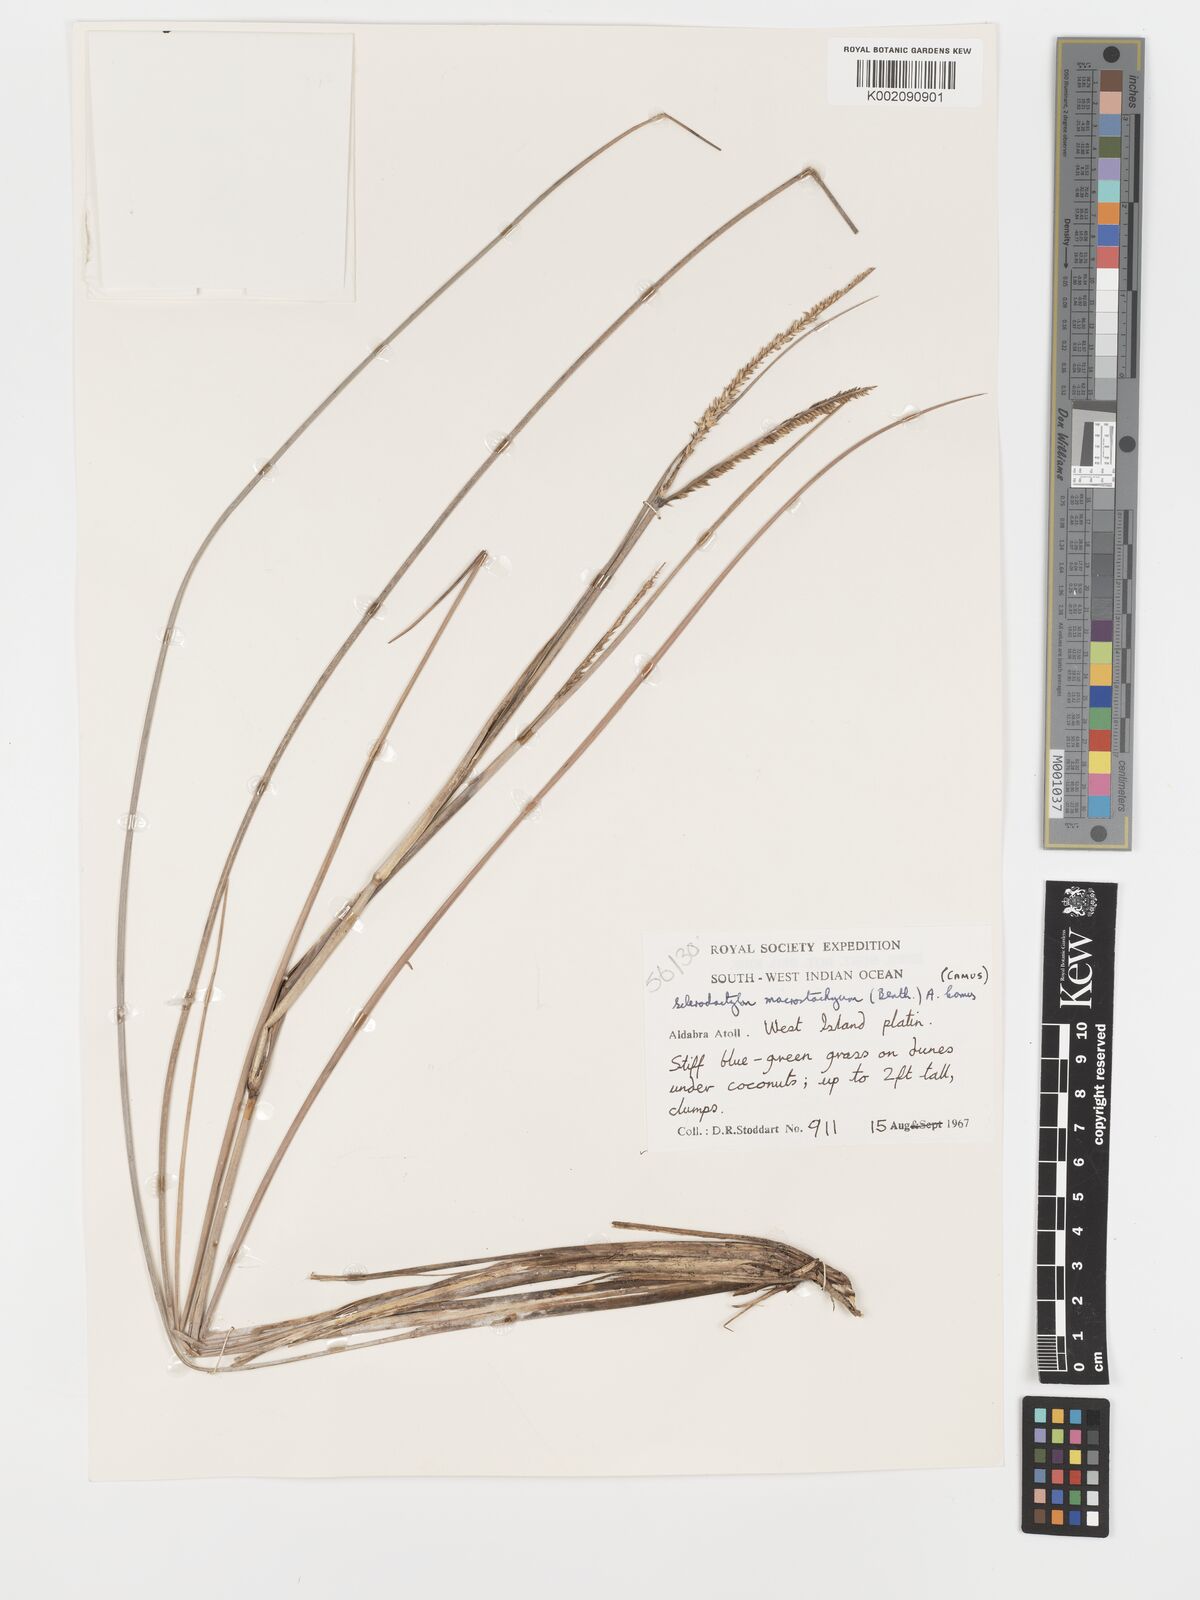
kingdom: Plantae
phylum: Tracheophyta
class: Liliopsida
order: Poales
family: Poaceae
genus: Sclerodactylon
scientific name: Sclerodactylon macrostachyum
